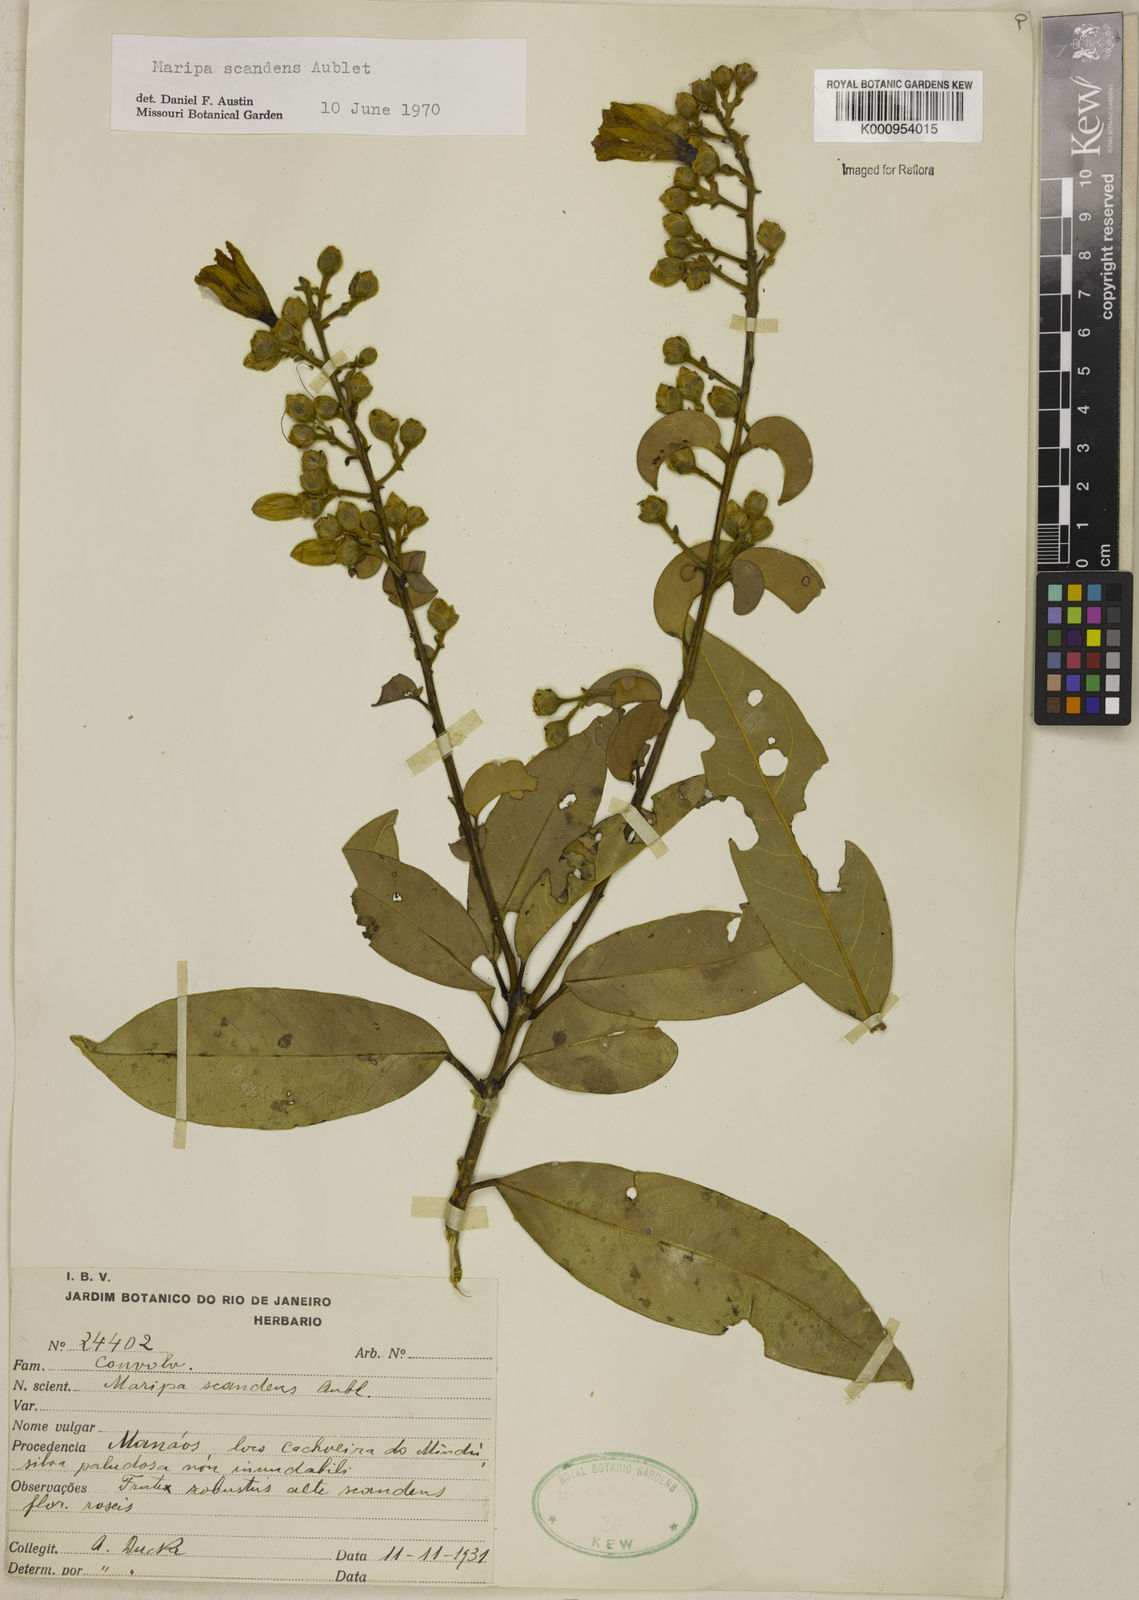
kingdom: Plantae
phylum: Tracheophyta
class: Magnoliopsida
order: Solanales
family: Convolvulaceae
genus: Maripa
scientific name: Maripa scandens
